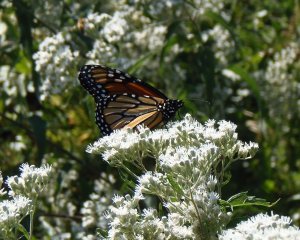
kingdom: Animalia
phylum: Arthropoda
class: Insecta
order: Lepidoptera
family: Nymphalidae
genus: Danaus
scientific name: Danaus plexippus
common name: Monarch
